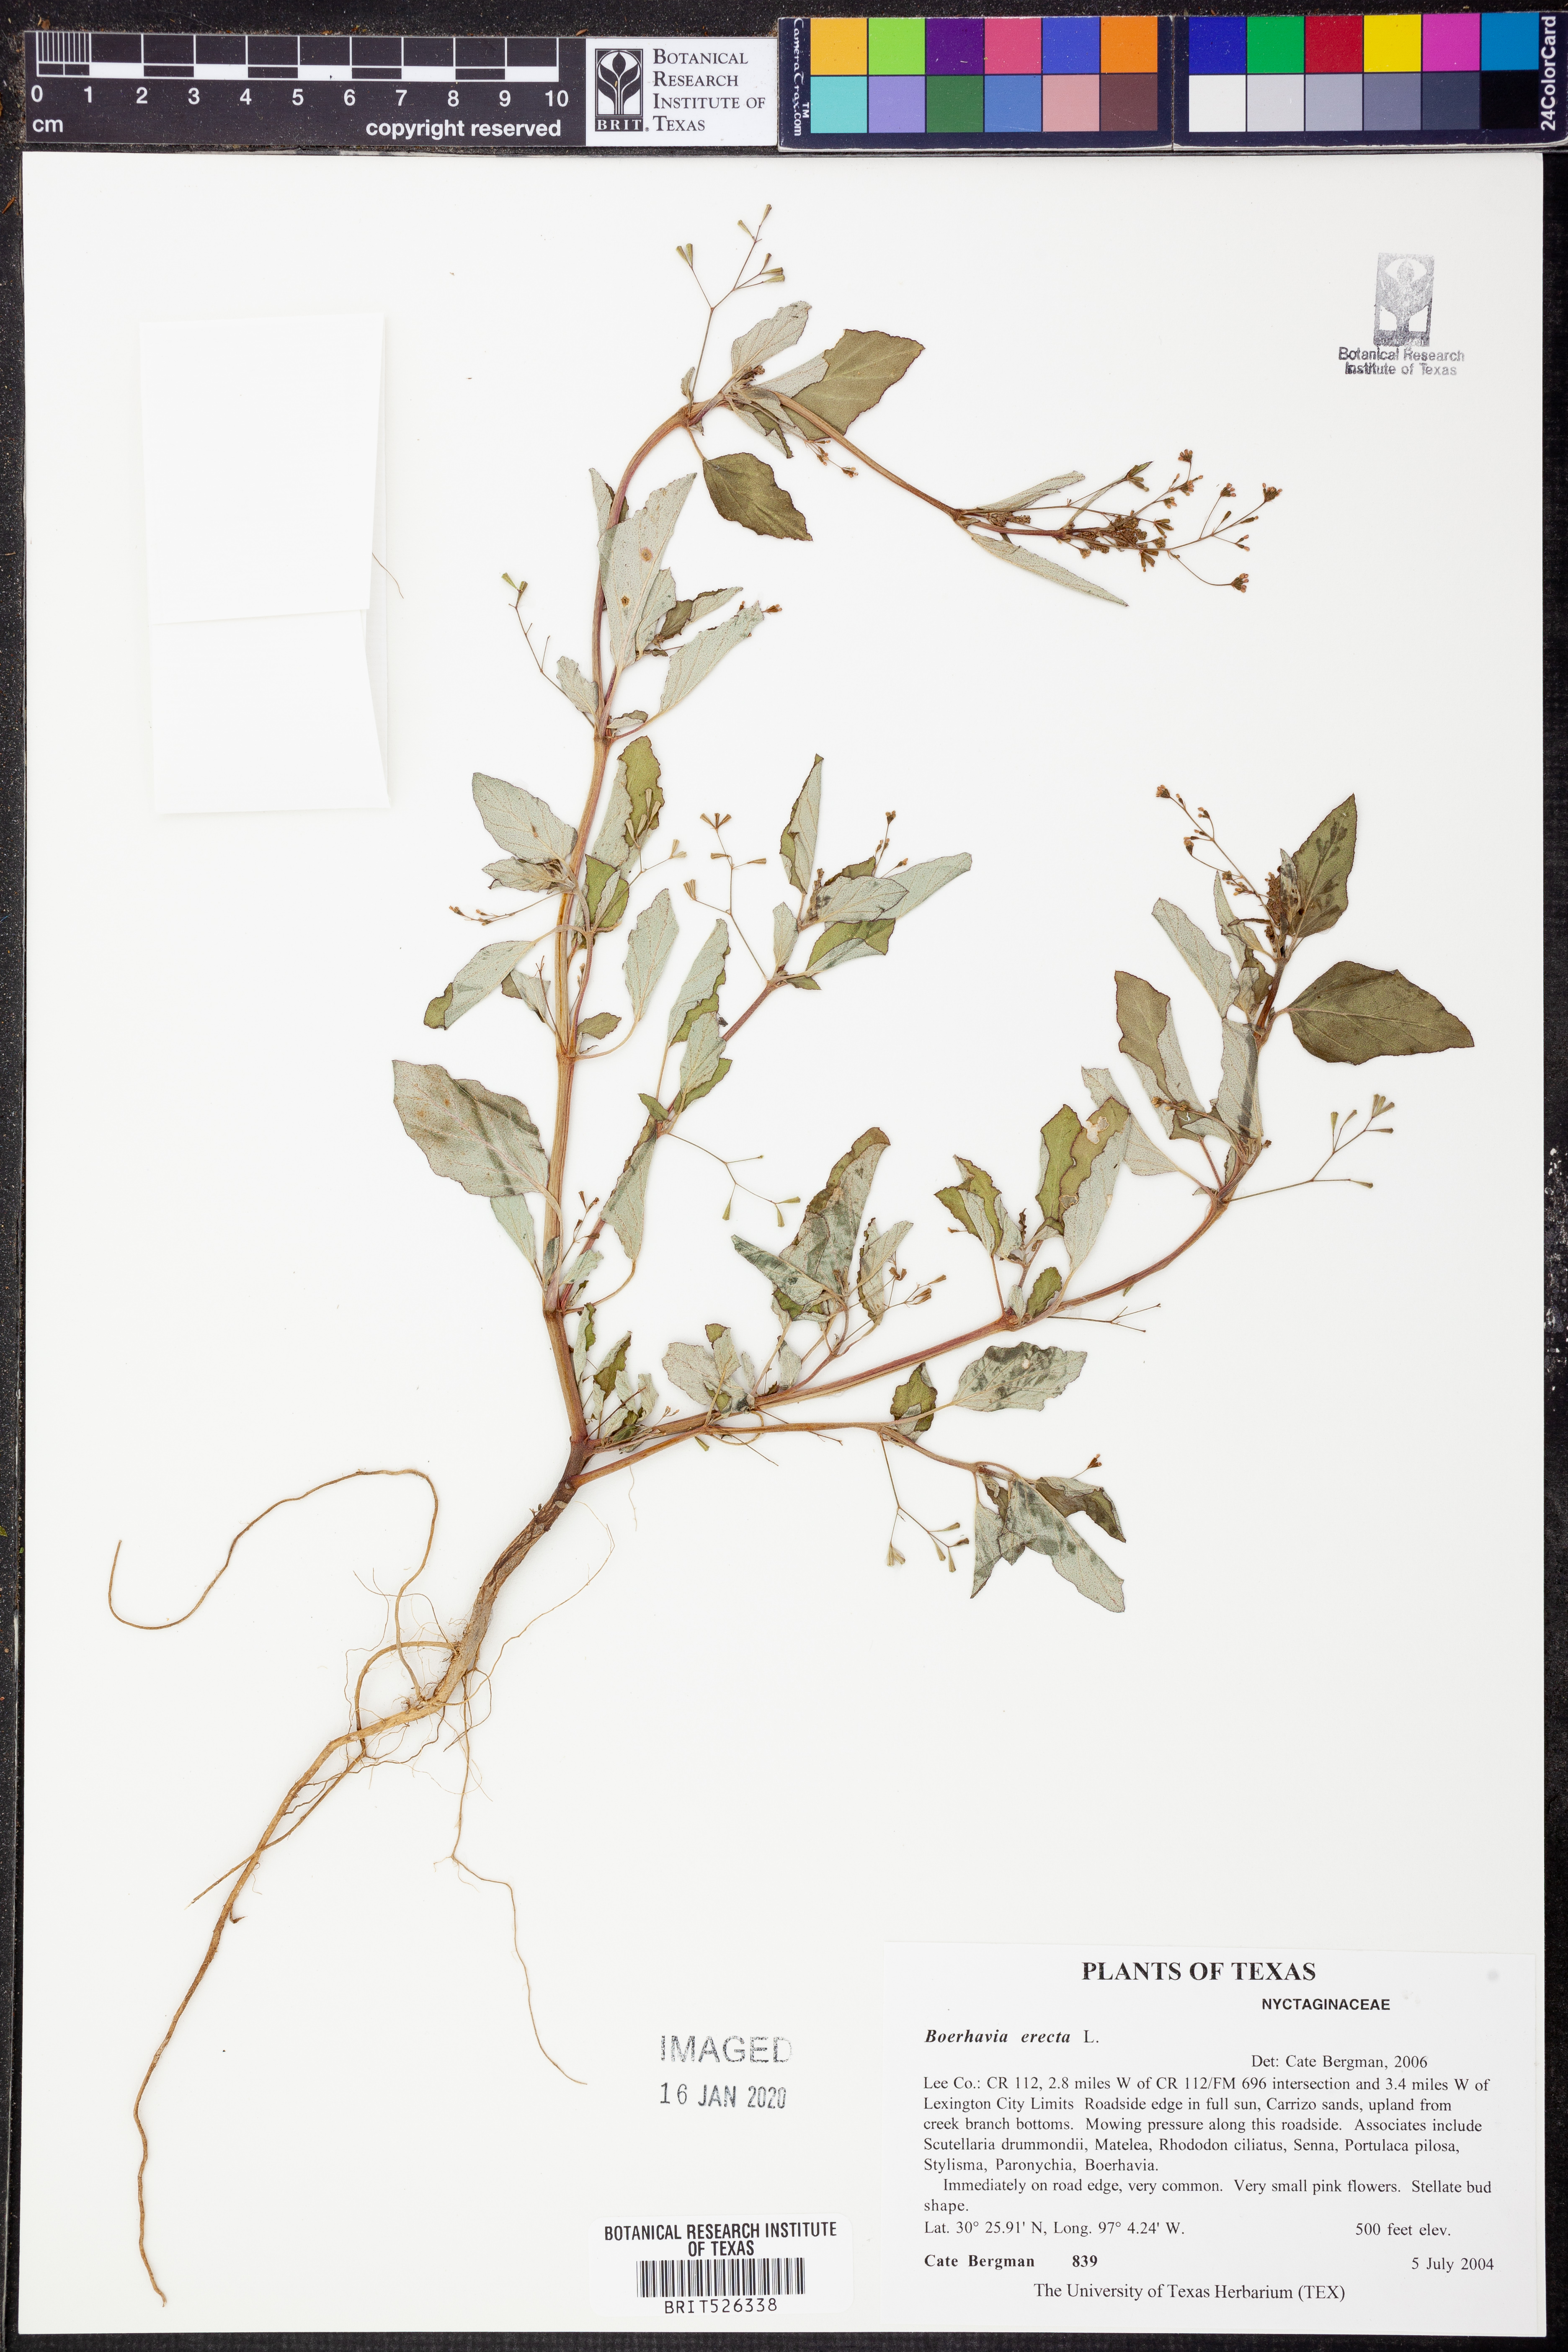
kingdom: Plantae
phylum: Tracheophyta
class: Magnoliopsida
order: Caryophyllales
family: Nyctaginaceae
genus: Boerhavia
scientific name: Boerhavia erecta
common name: Erect spiderling
